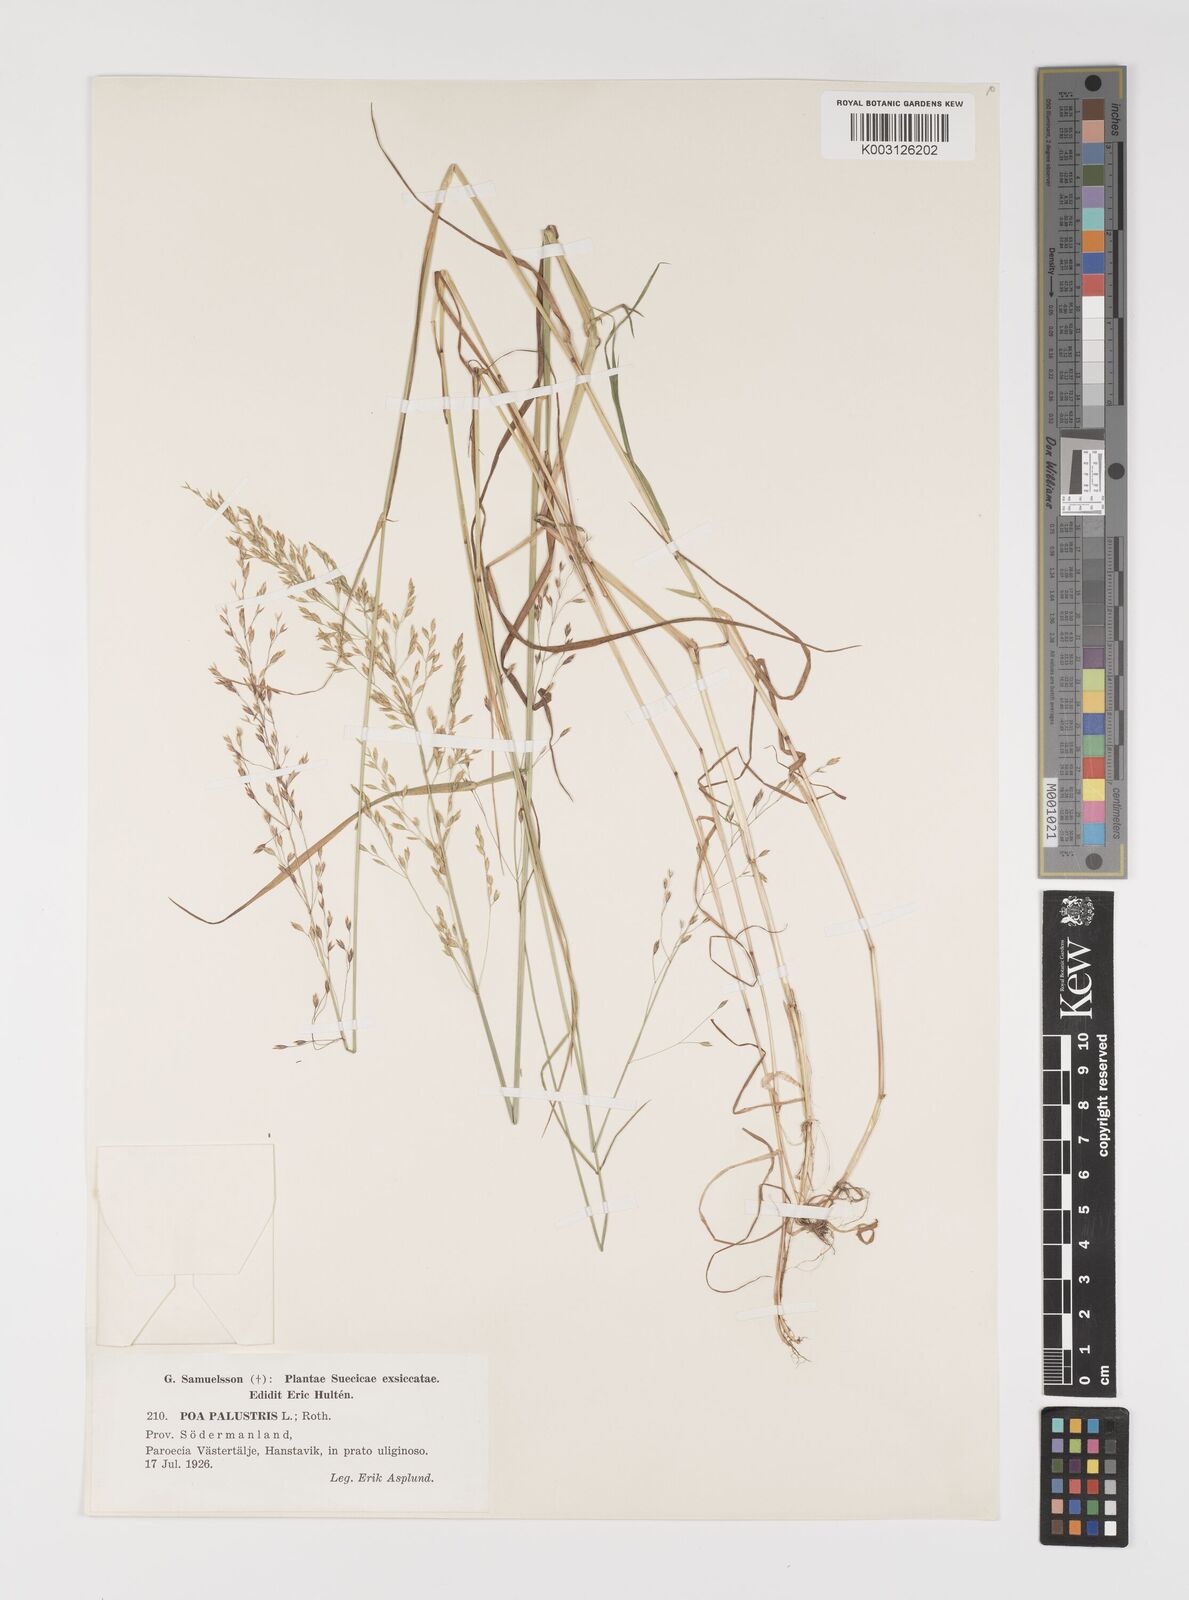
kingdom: Plantae
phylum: Tracheophyta
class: Liliopsida
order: Poales
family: Poaceae
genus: Poa
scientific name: Poa palustris
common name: Swamp meadow-grass
